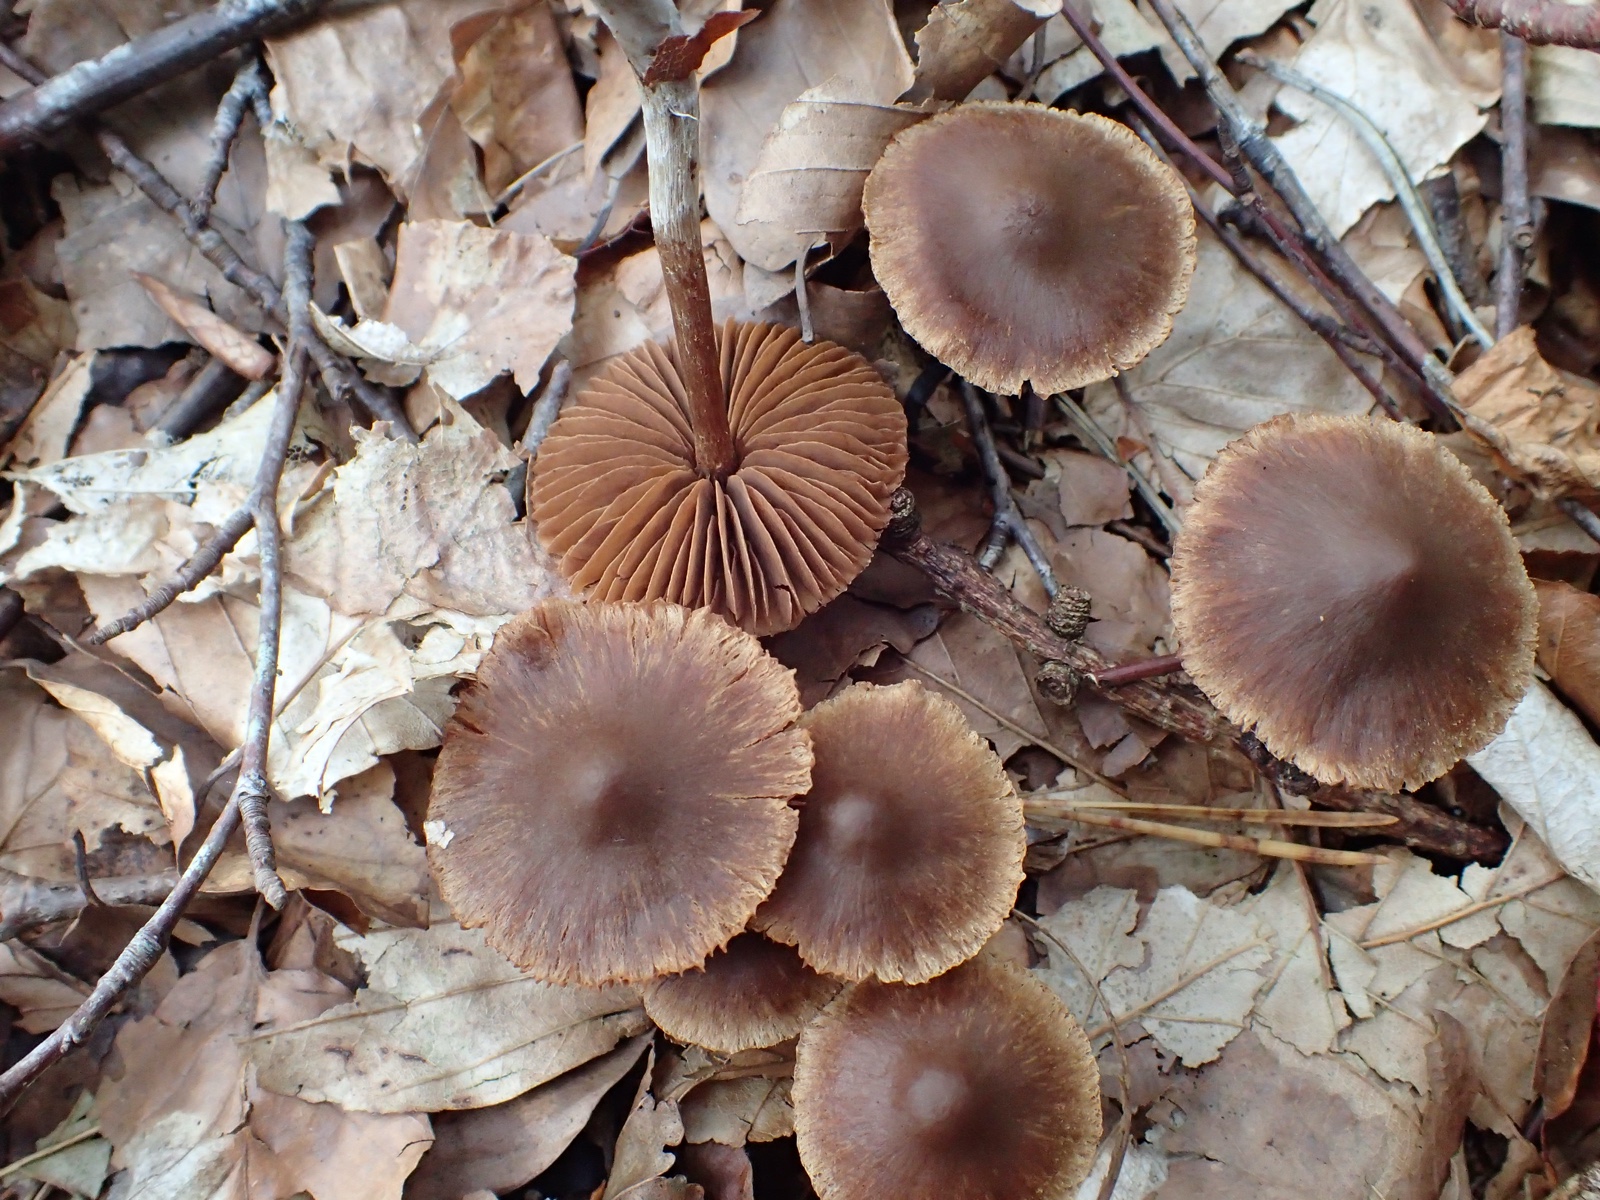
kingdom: Fungi
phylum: Basidiomycota
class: Agaricomycetes
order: Agaricales
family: Cortinariaceae
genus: Cortinarius
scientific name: Cortinarius
